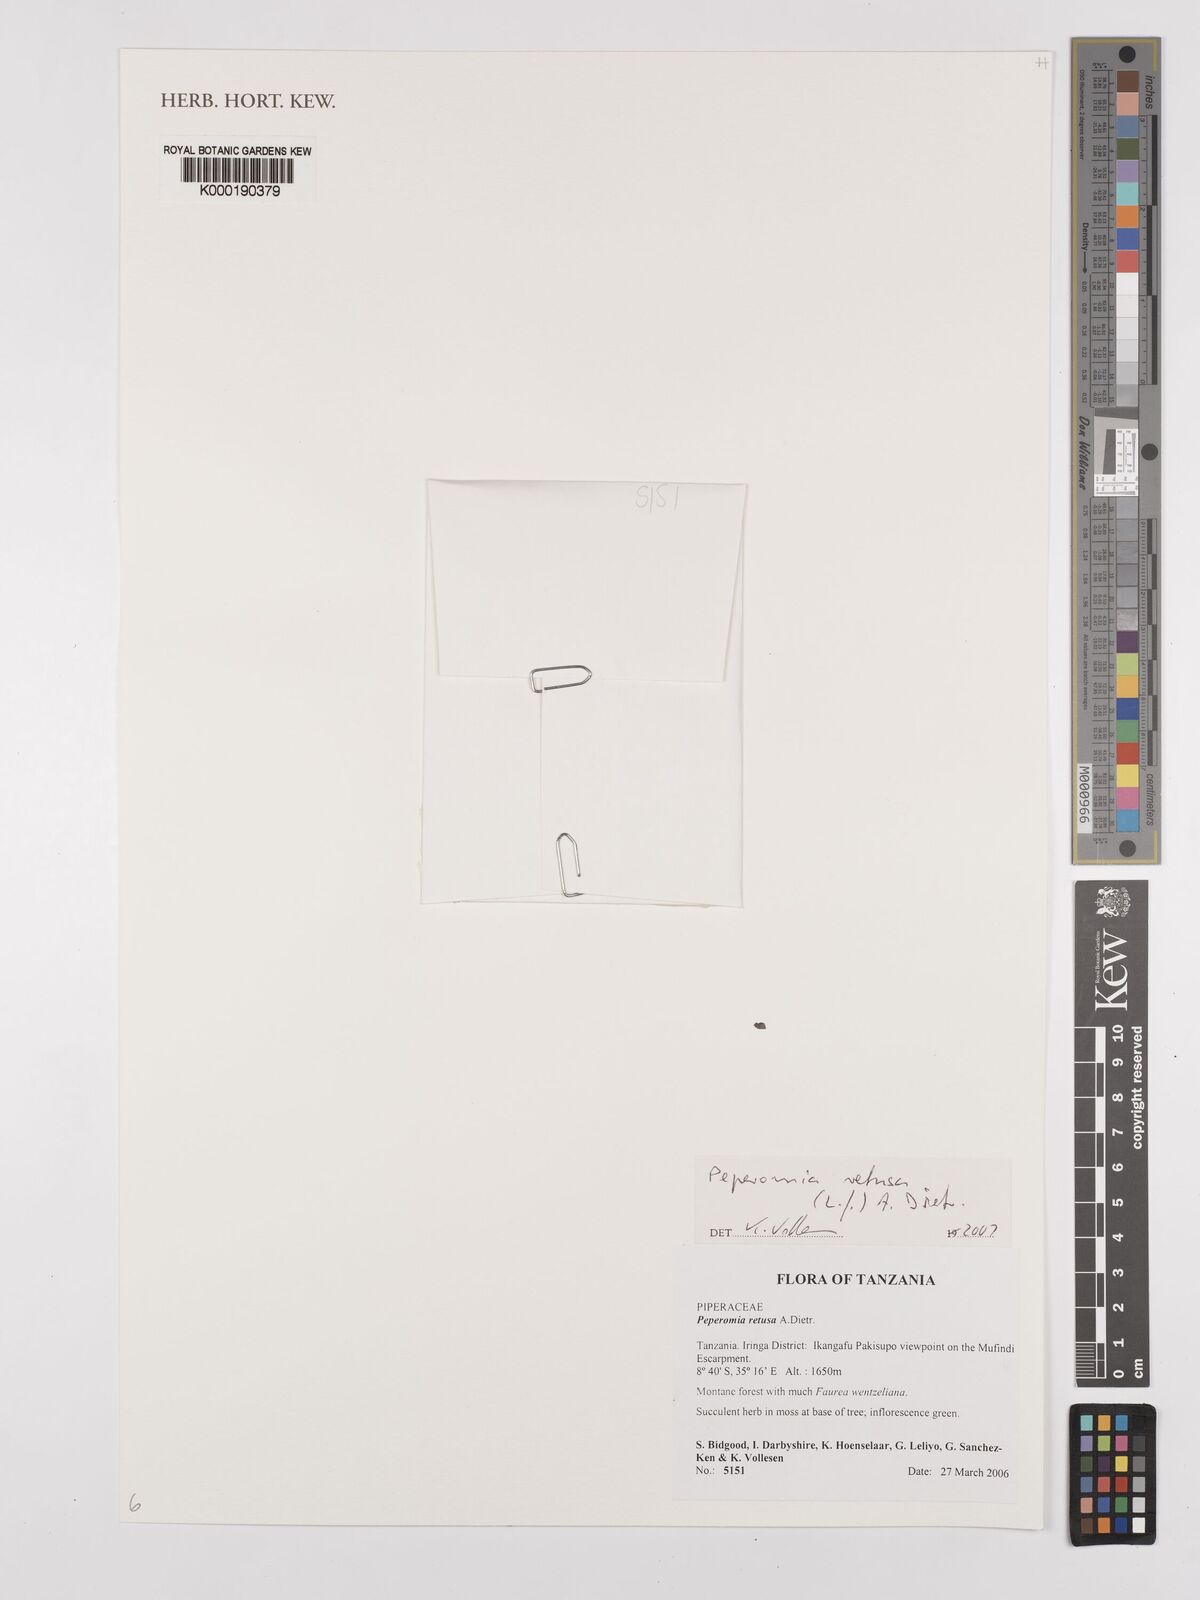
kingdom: Plantae
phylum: Tracheophyta
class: Magnoliopsida
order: Piperales
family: Piperaceae
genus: Peperomia
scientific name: Peperomia retusa
